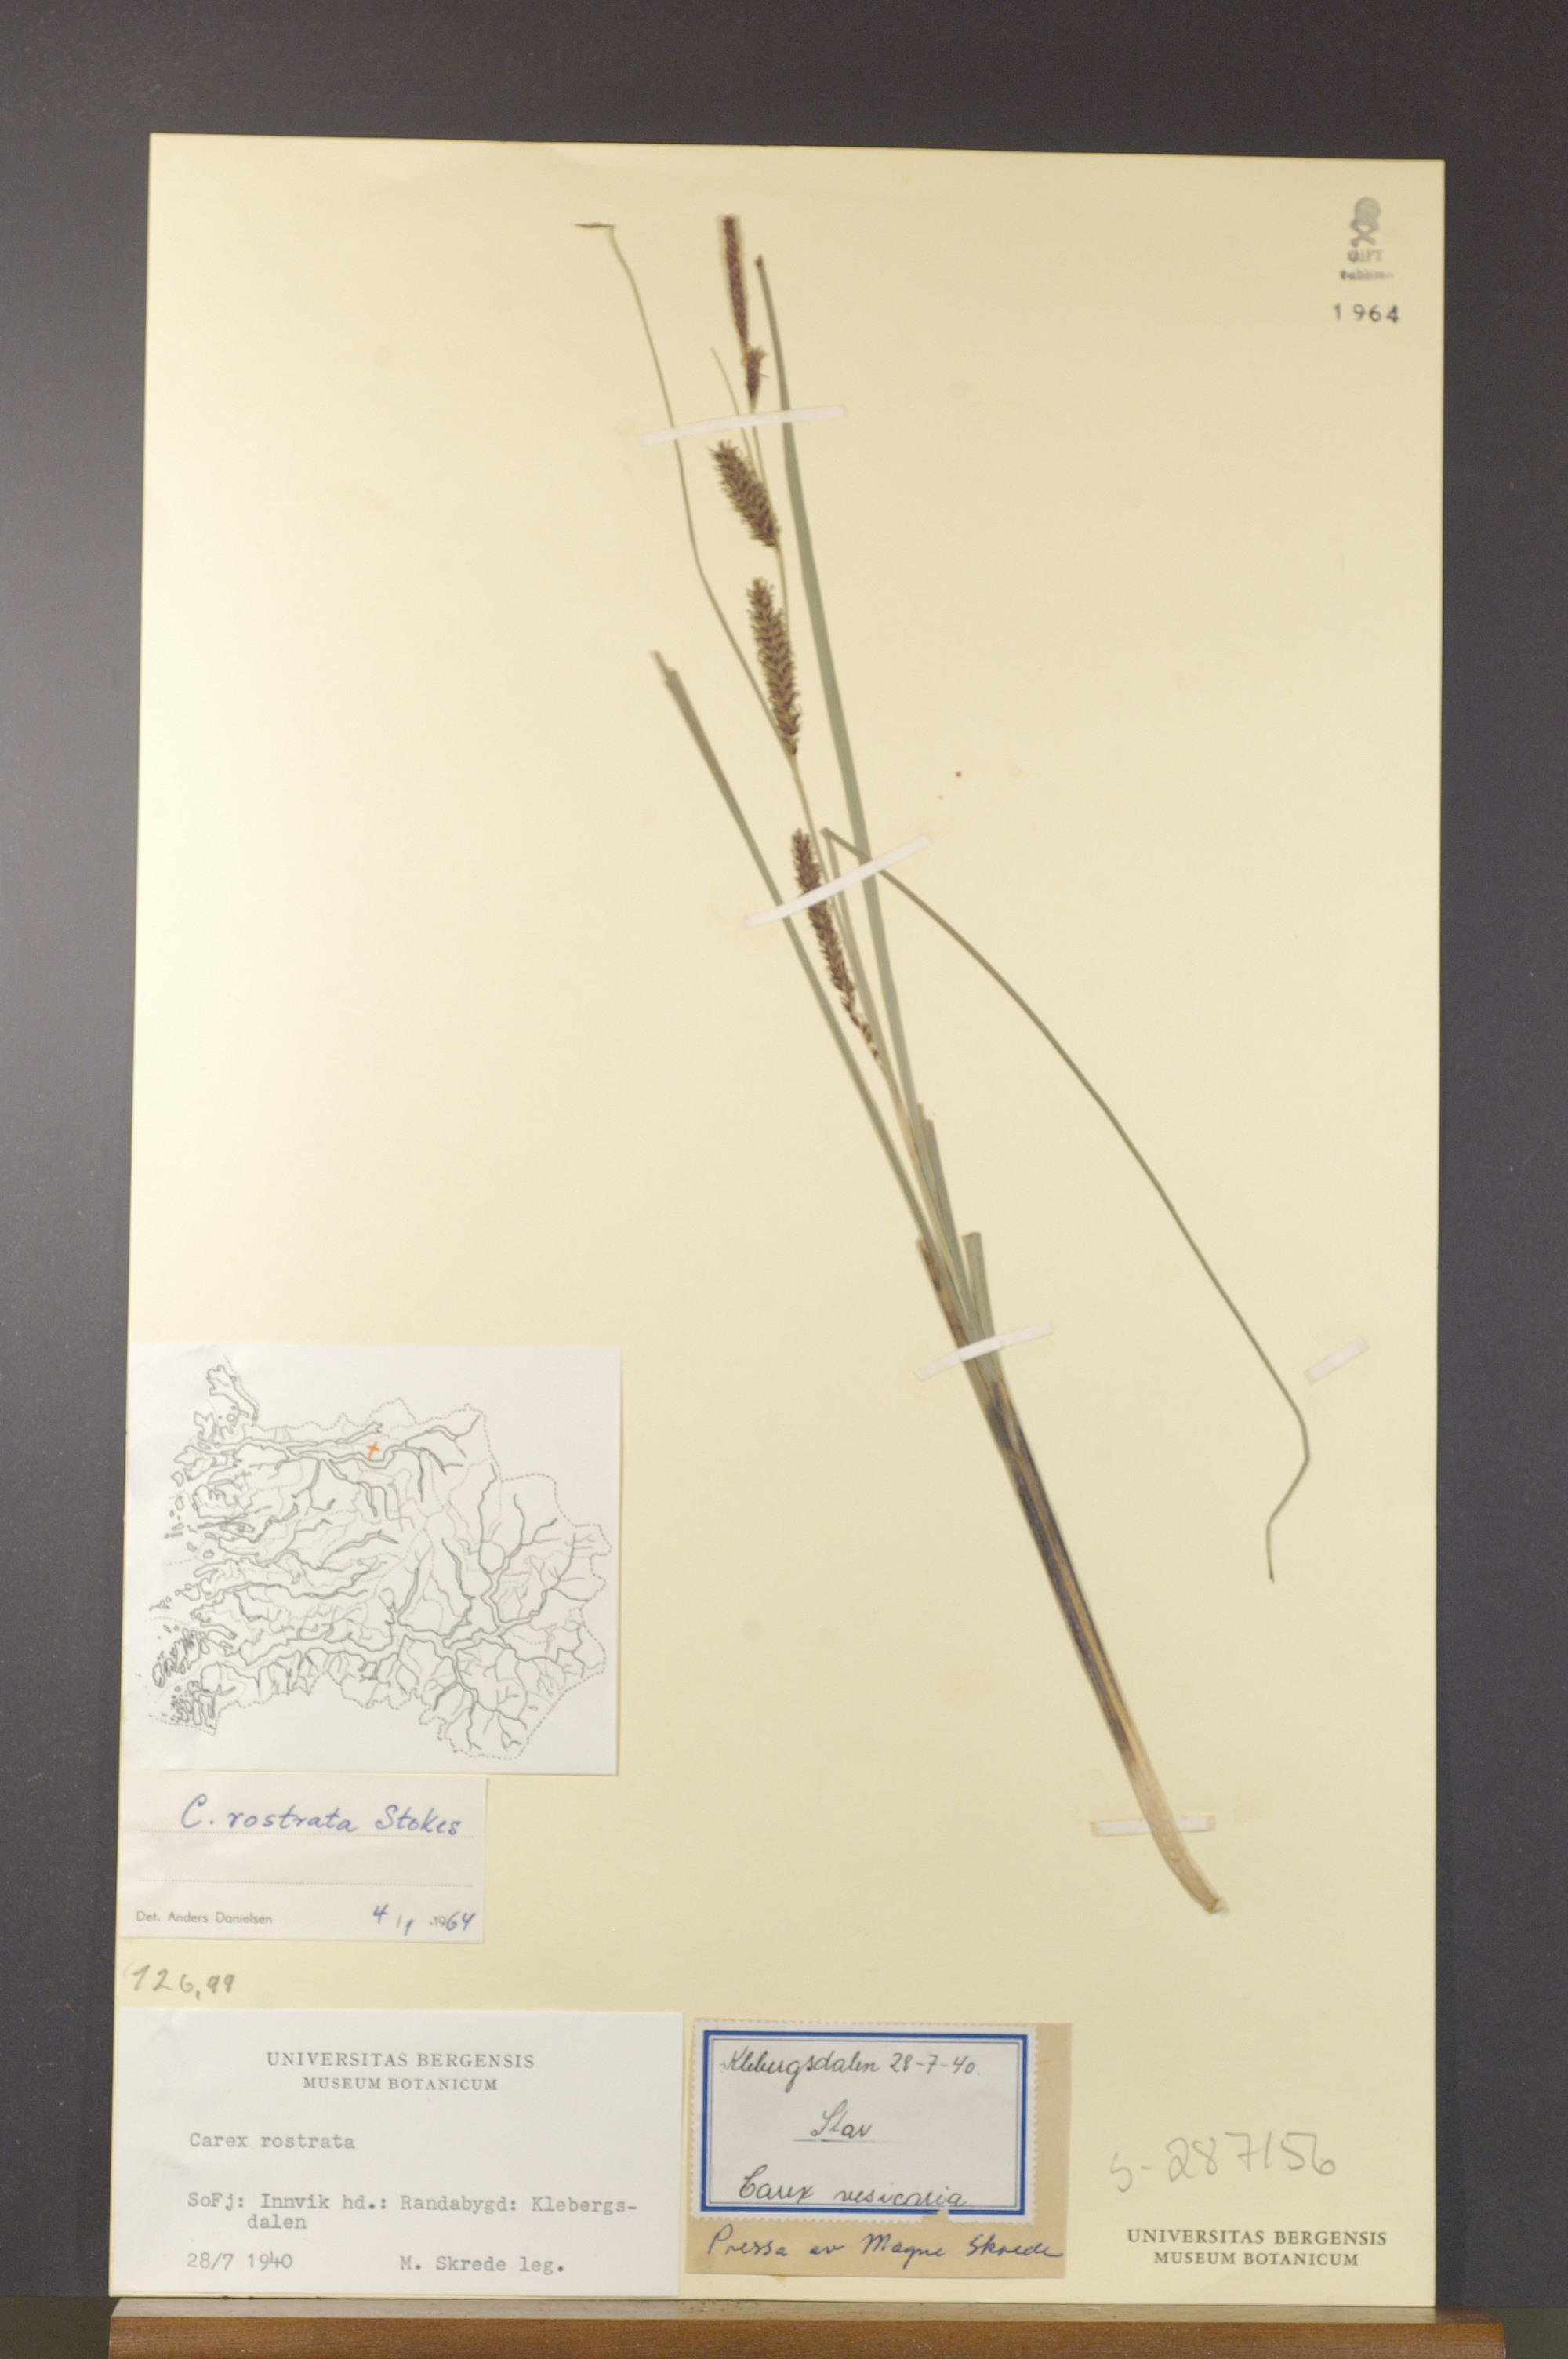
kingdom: Plantae
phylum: Tracheophyta
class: Liliopsida
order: Poales
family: Cyperaceae
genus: Carex
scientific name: Carex rostrata
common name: Bottle sedge
